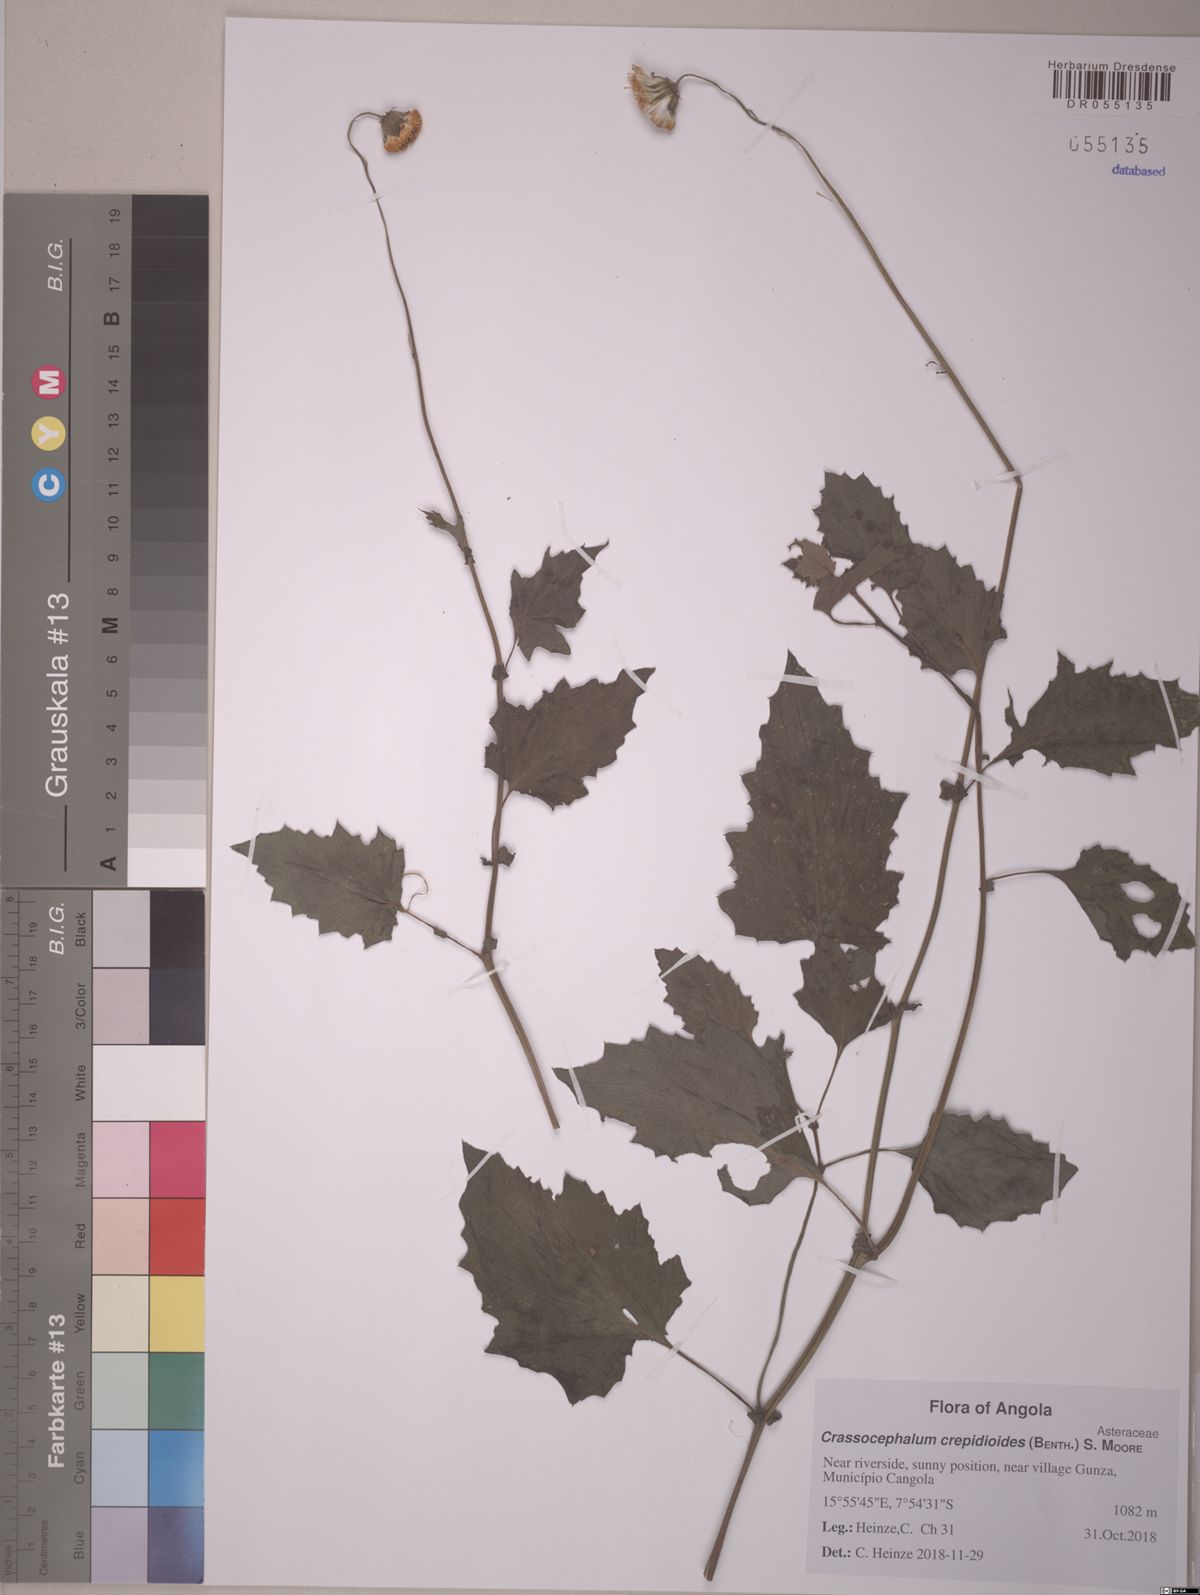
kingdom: Plantae
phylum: Tracheophyta
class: Magnoliopsida
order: Asterales
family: Asteraceae
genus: Crassocephalum
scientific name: Crassocephalum vitellinum
